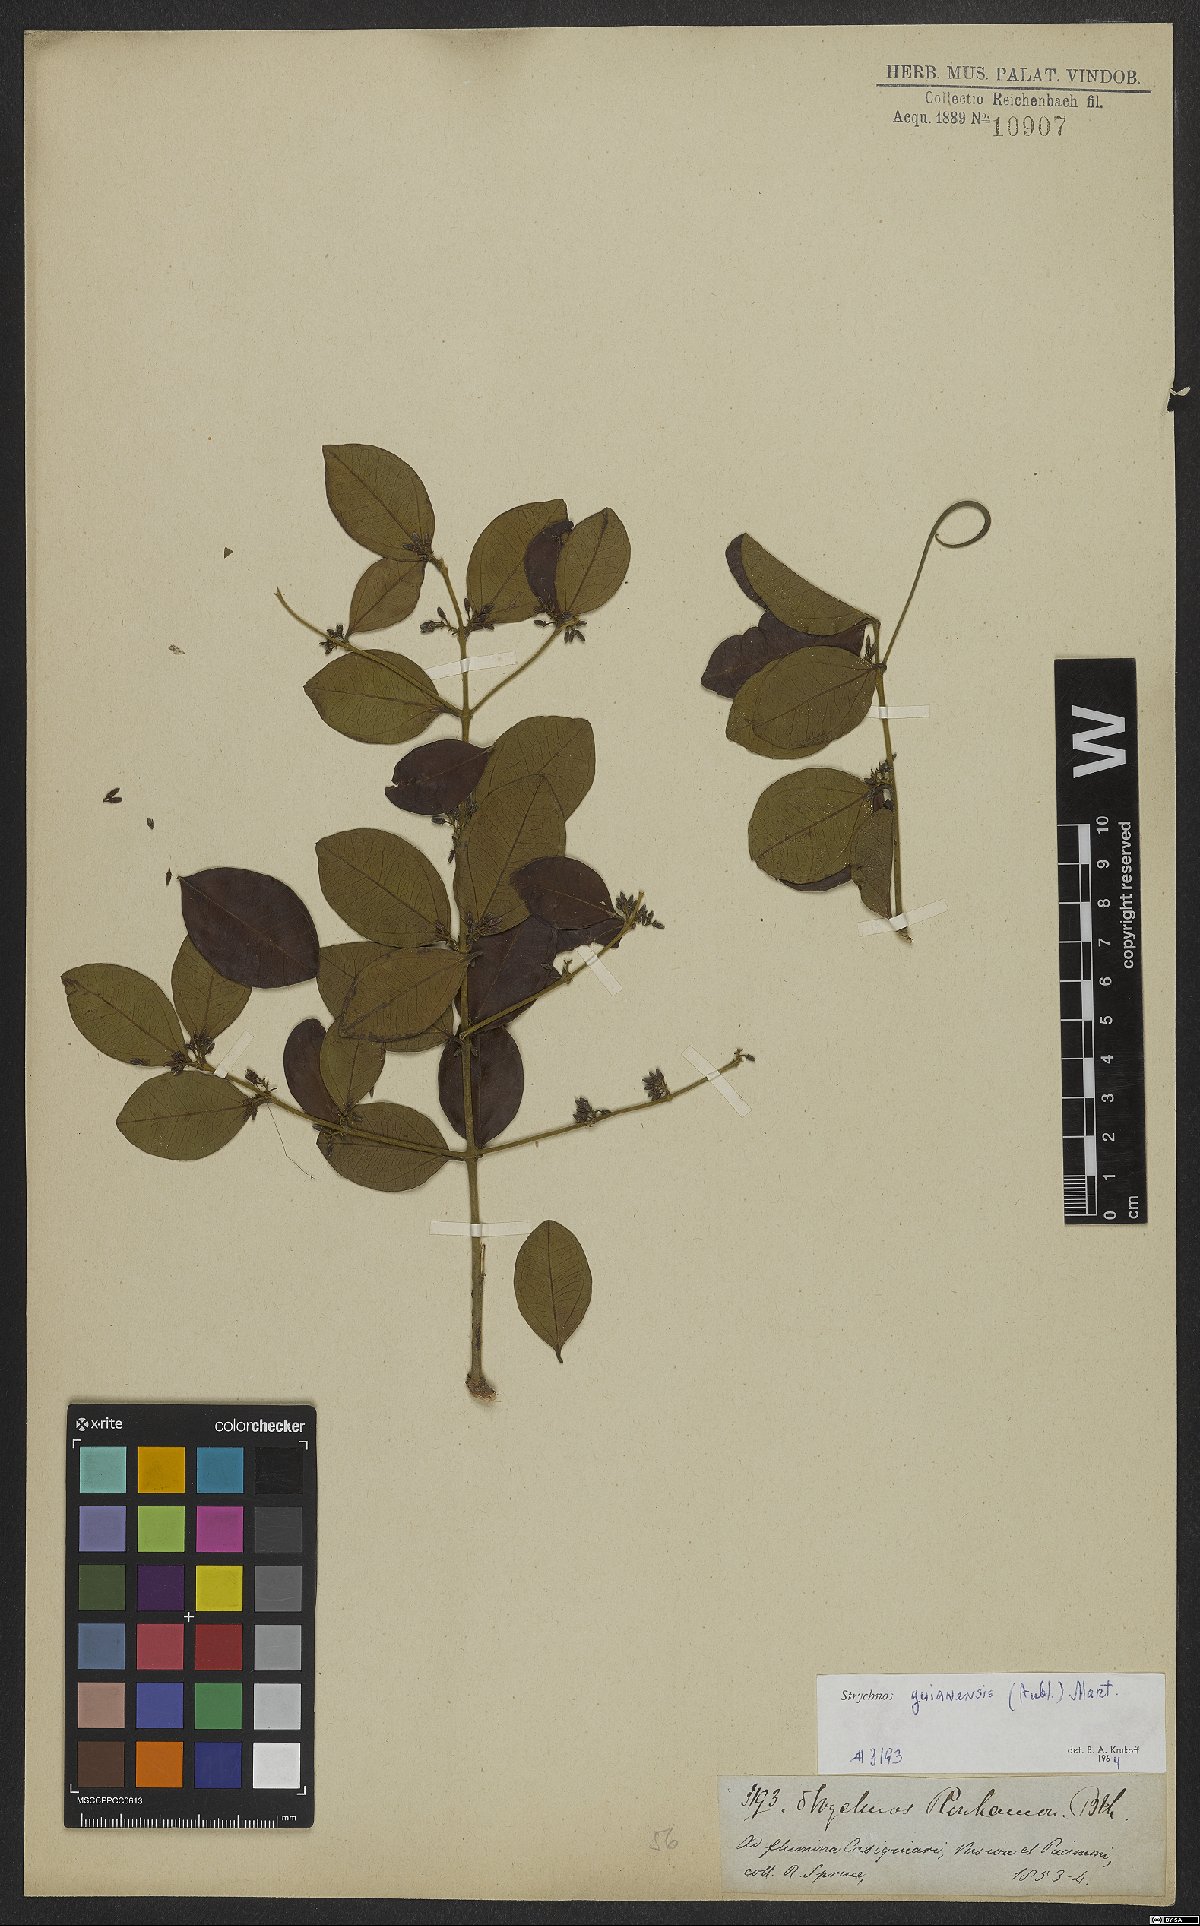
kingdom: Plantae
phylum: Tracheophyta
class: Magnoliopsida
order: Gentianales
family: Loganiaceae
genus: Strychnos
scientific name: Strychnos guianensis
